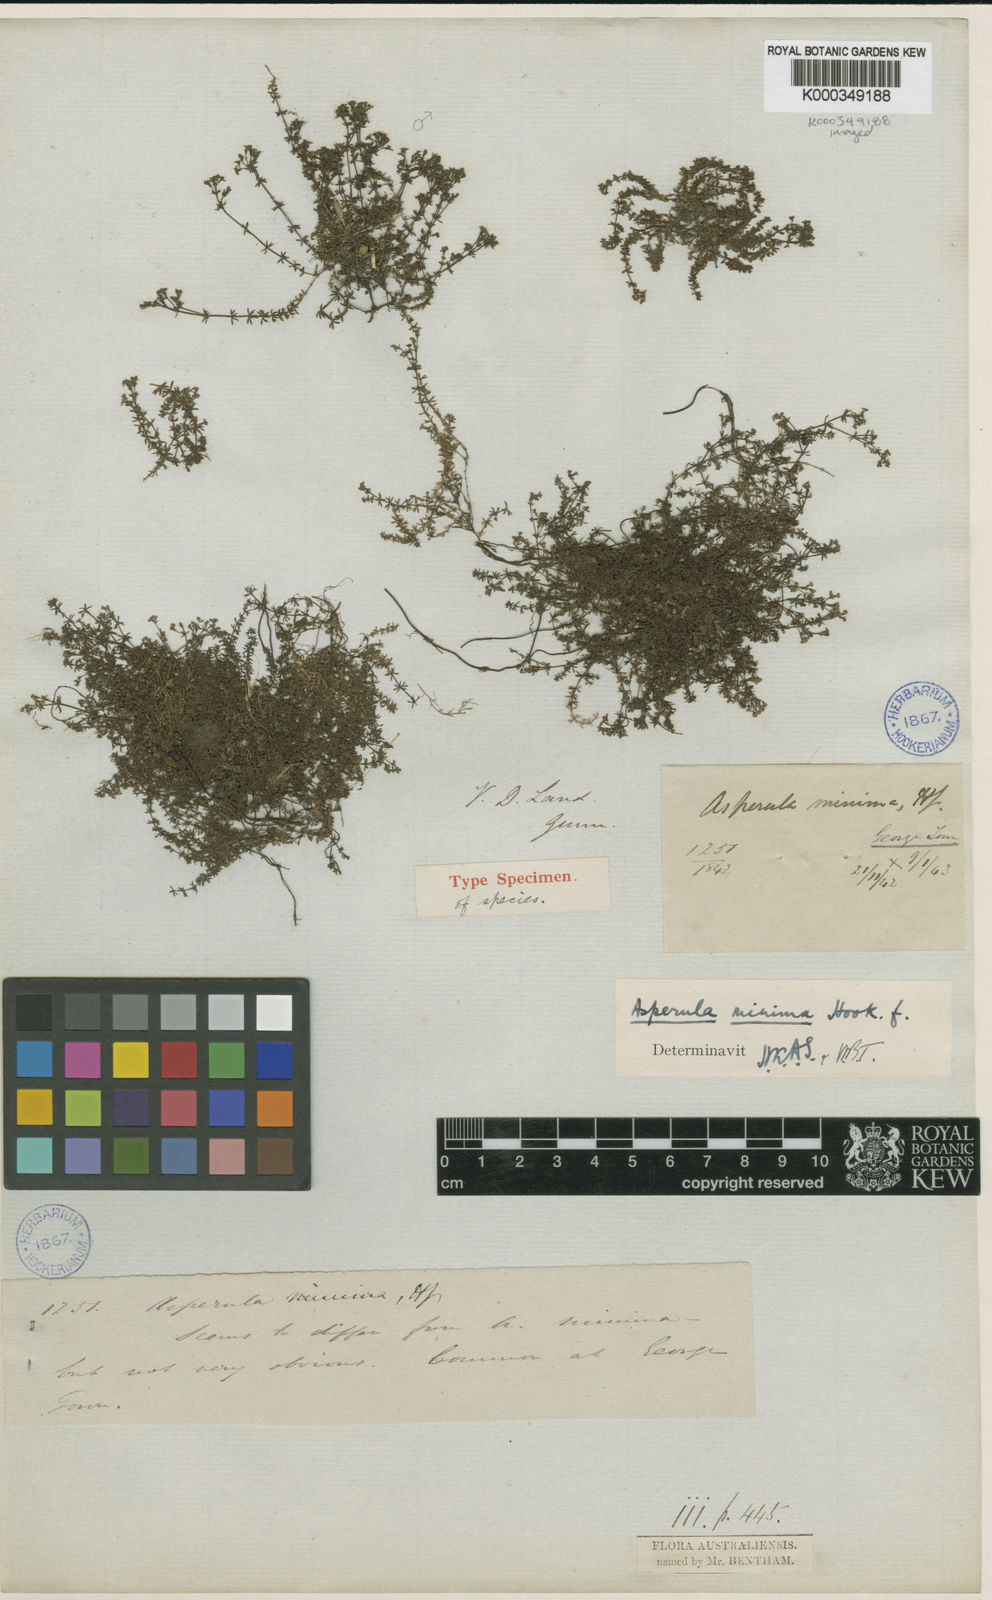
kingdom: Plantae
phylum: Tracheophyta
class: Magnoliopsida
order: Gentianales
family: Rubiaceae
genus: Asperula
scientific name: Asperula minima
